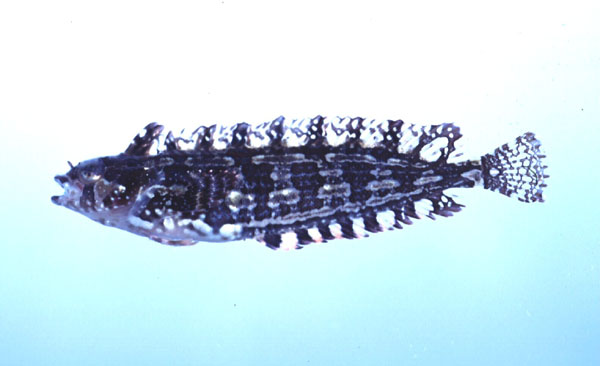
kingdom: Animalia
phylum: Chordata
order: Perciformes
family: Clinidae
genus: Pavoclinus
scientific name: Pavoclinus laurentii
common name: Rippled klipfish
